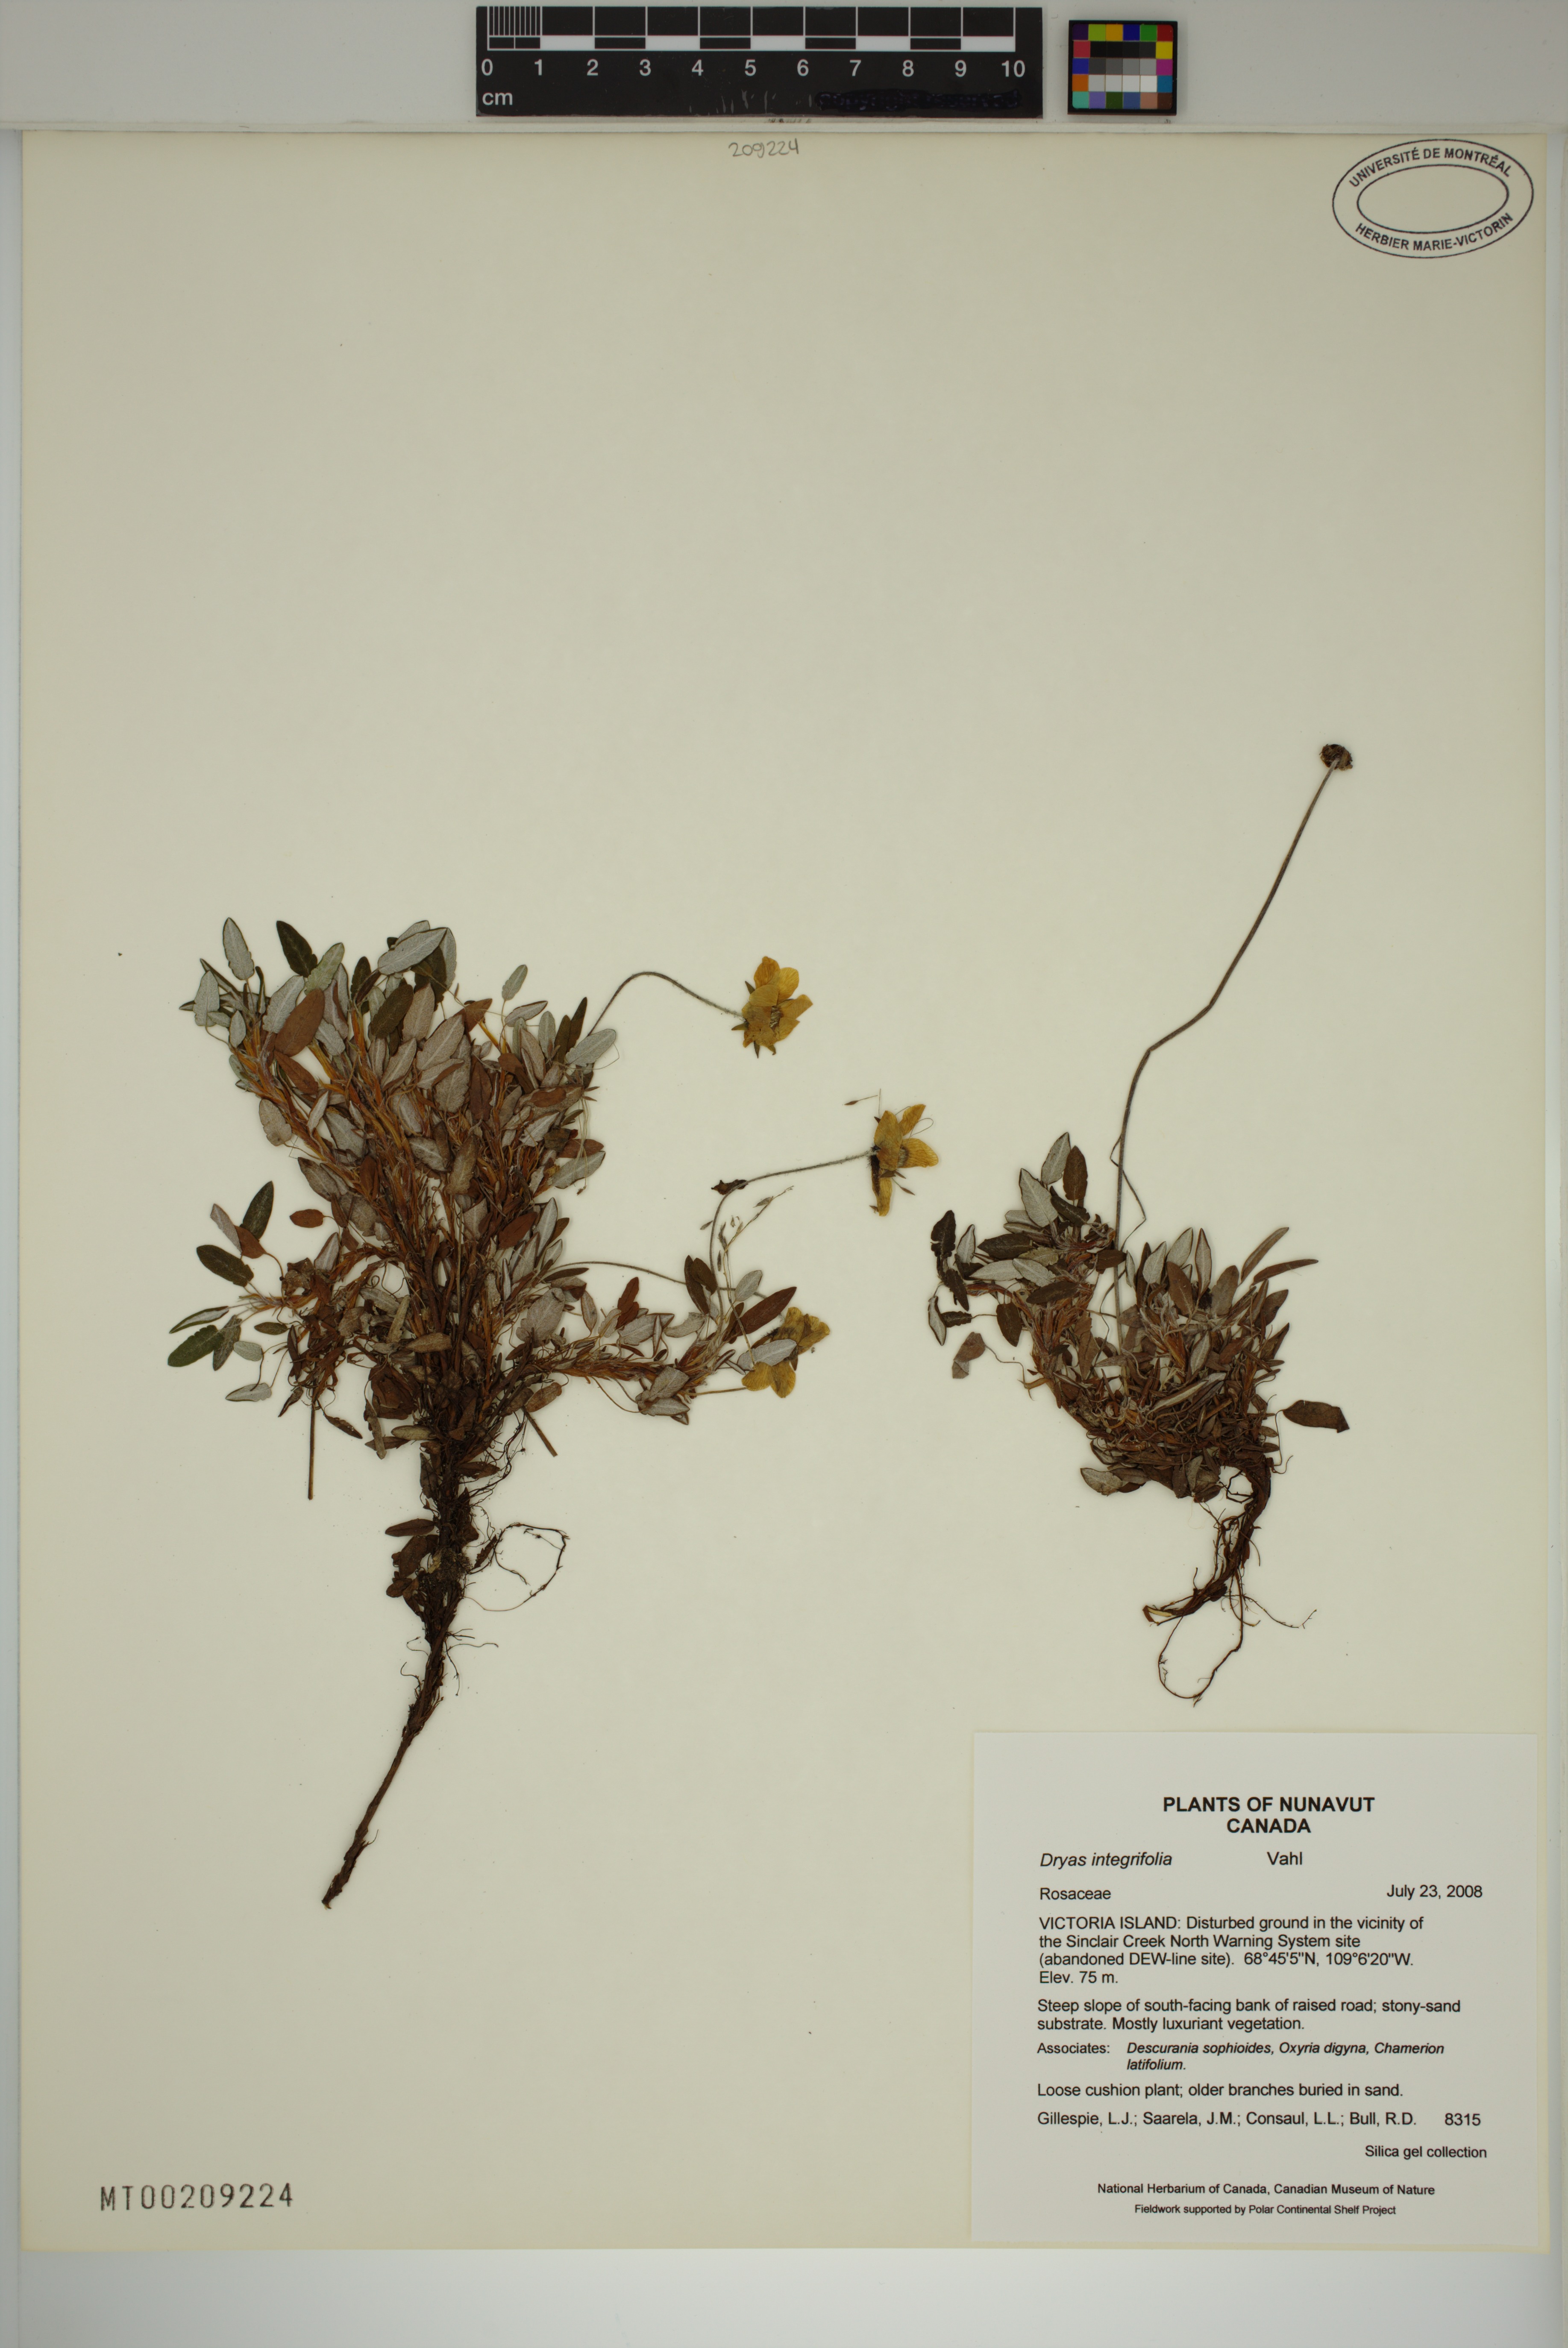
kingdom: Plantae
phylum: Tracheophyta
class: Magnoliopsida
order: Rosales
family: Rosaceae
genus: Dryas
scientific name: Dryas integrifolia
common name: Entire-leaved mountain avens
